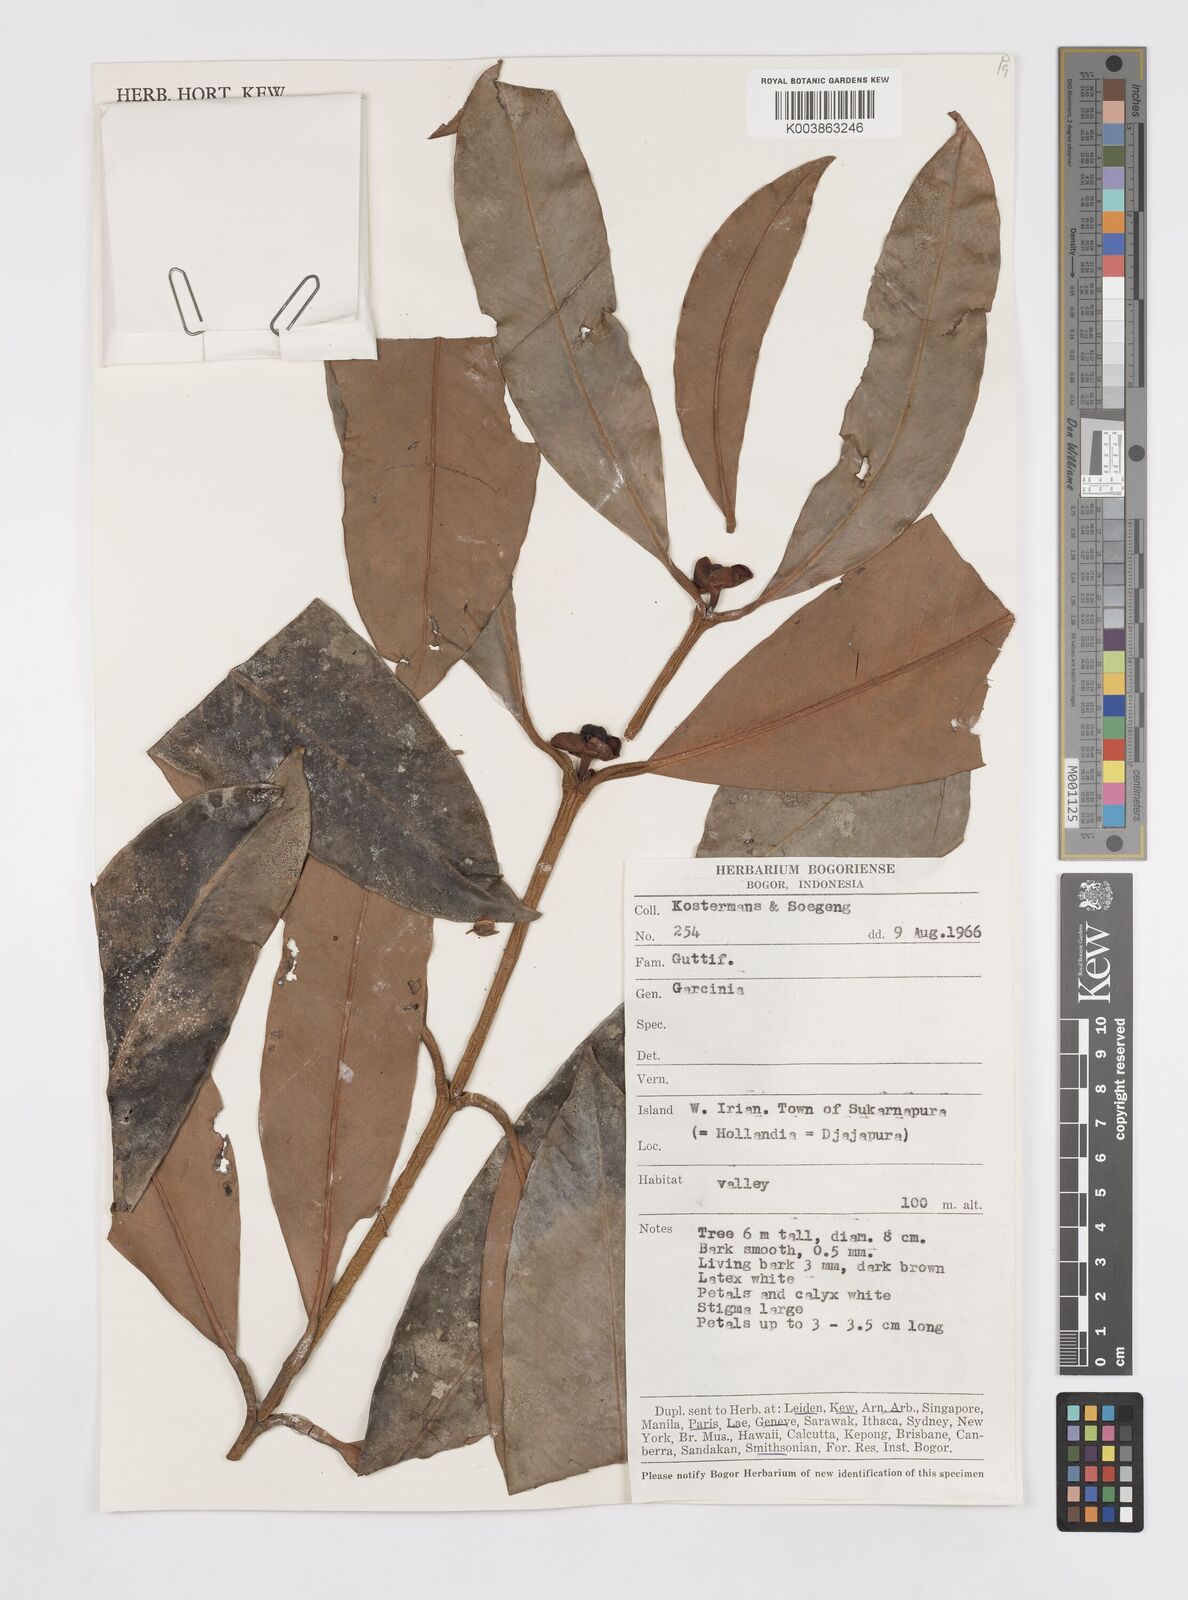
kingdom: Plantae
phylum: Tracheophyta
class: Magnoliopsida
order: Malpighiales
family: Clusiaceae
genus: Garcinia
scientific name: Garcinia
